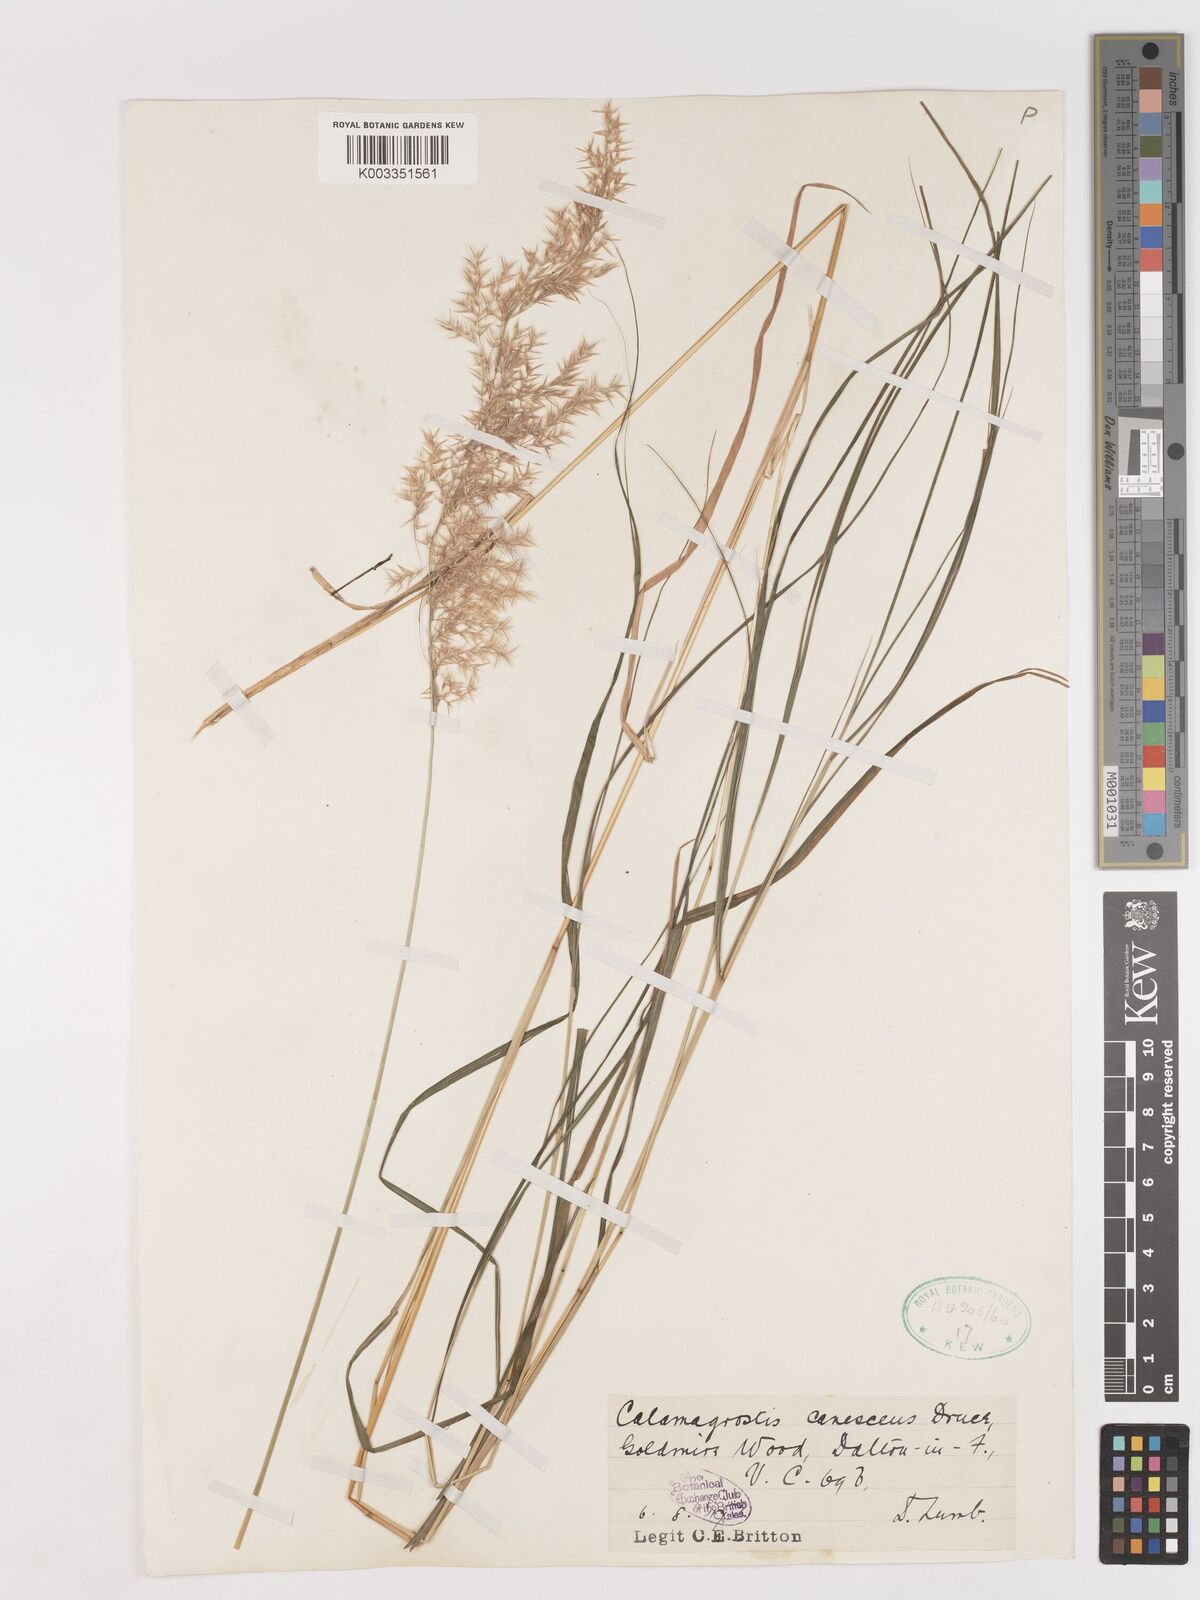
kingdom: Plantae
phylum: Tracheophyta
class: Liliopsida
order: Poales
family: Poaceae
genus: Calamagrostis
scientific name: Calamagrostis canescens
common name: Purple small-reed
